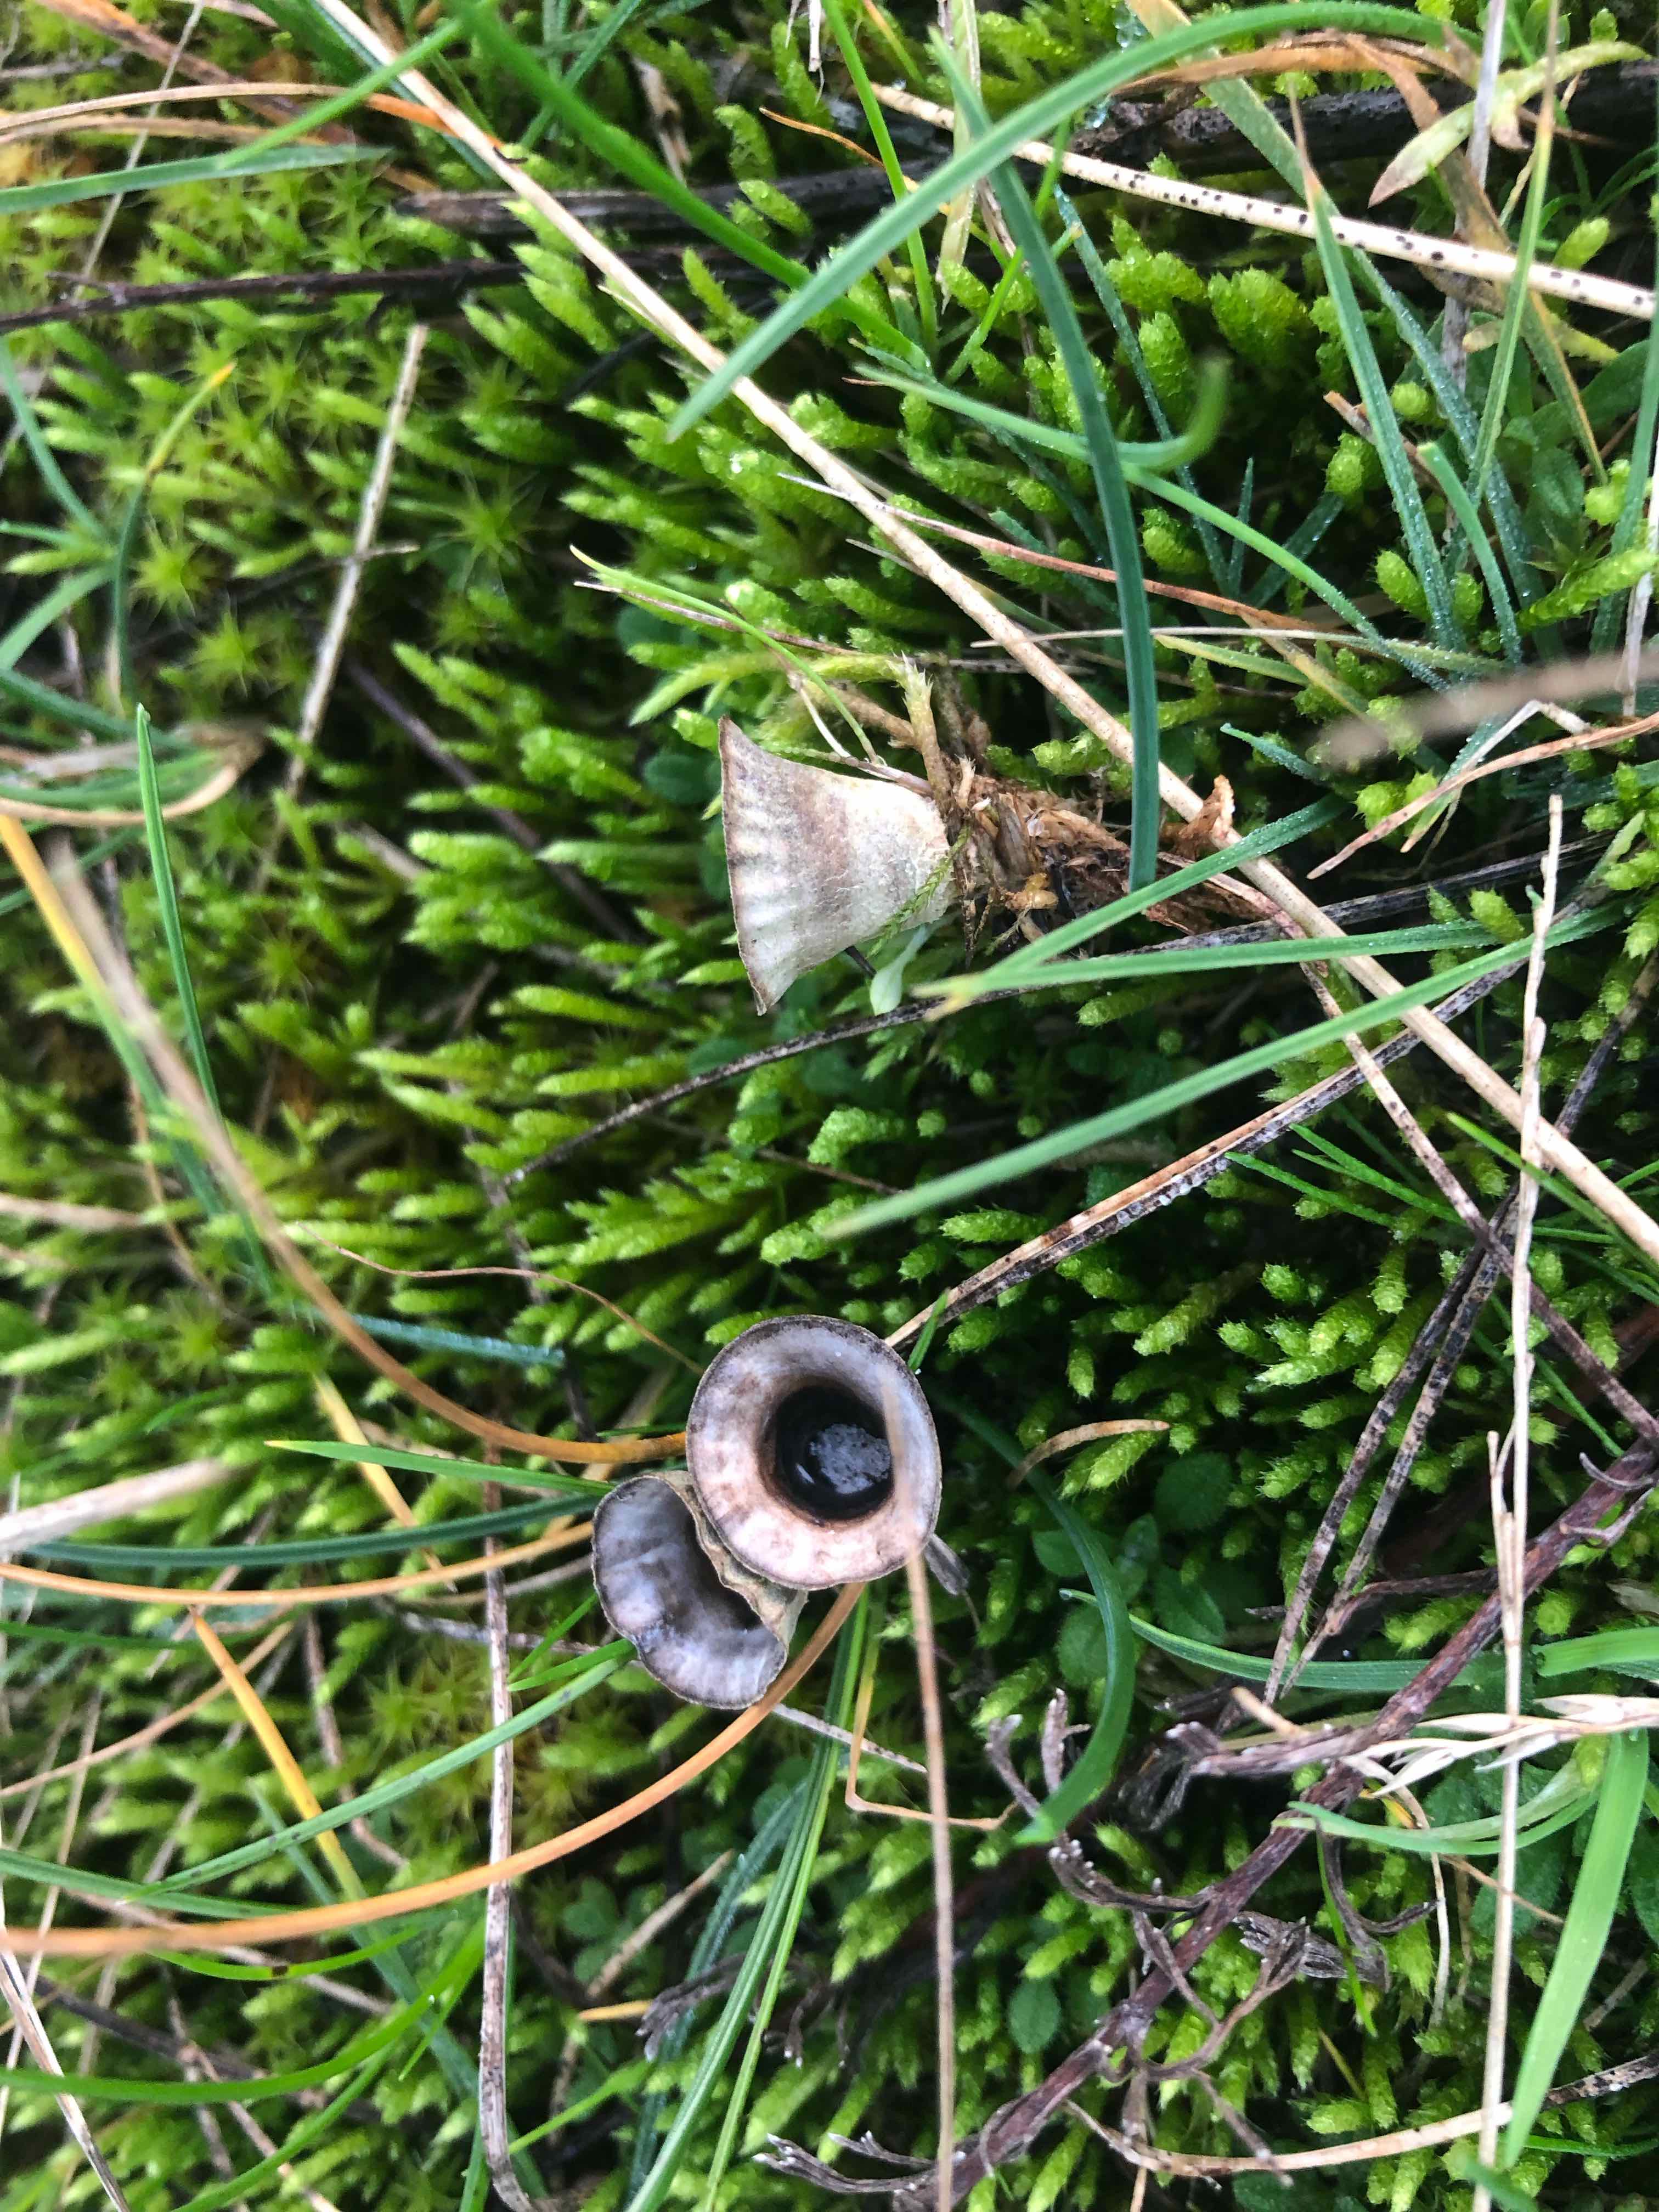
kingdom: Fungi
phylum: Basidiomycota
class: Agaricomycetes
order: Agaricales
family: Agaricaceae
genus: Cyathus
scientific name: Cyathus olla
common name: klokke-redesvamp
